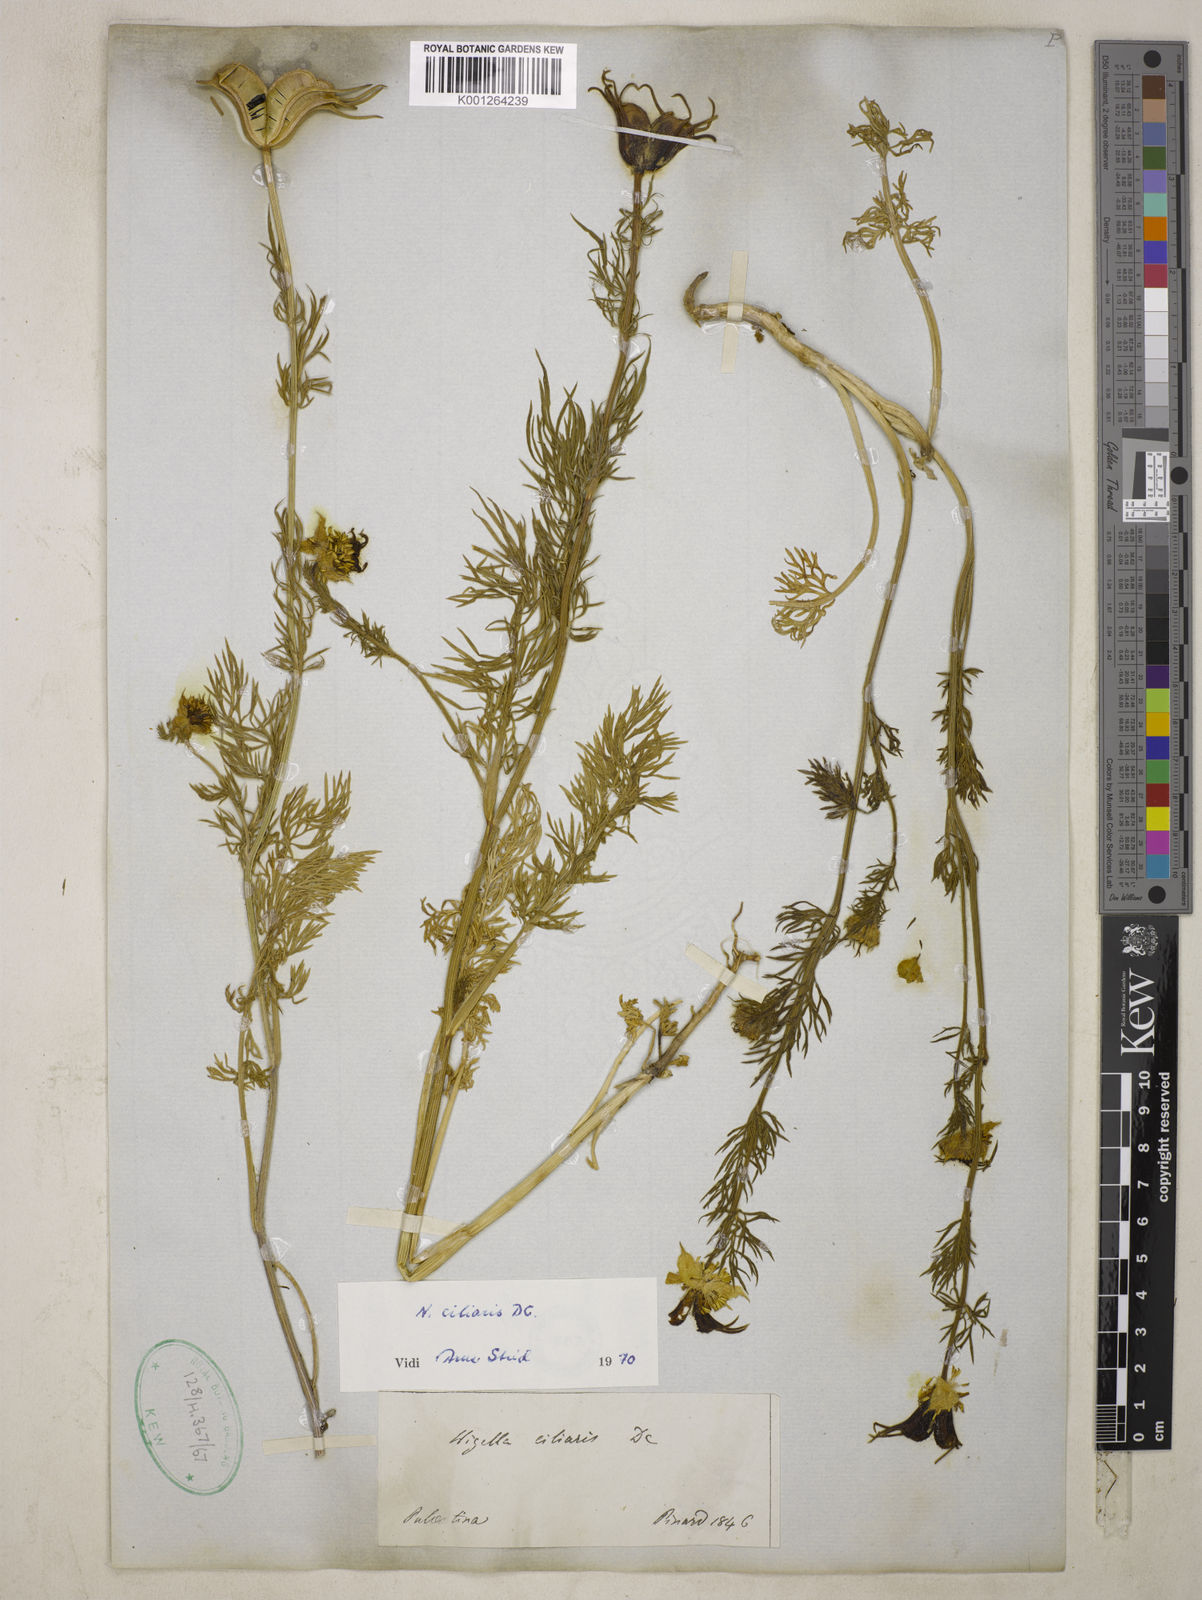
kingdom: Plantae
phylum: Tracheophyta
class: Magnoliopsida
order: Ranunculales
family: Ranunculaceae
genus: Nigella
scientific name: Nigella ciliaris
